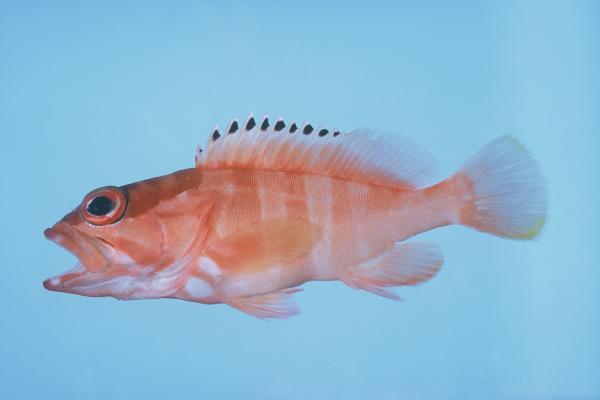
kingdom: Animalia
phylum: Chordata
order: Perciformes
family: Serranidae
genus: Epinephelus
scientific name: Epinephelus fasciatus
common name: Blacktip grouper
